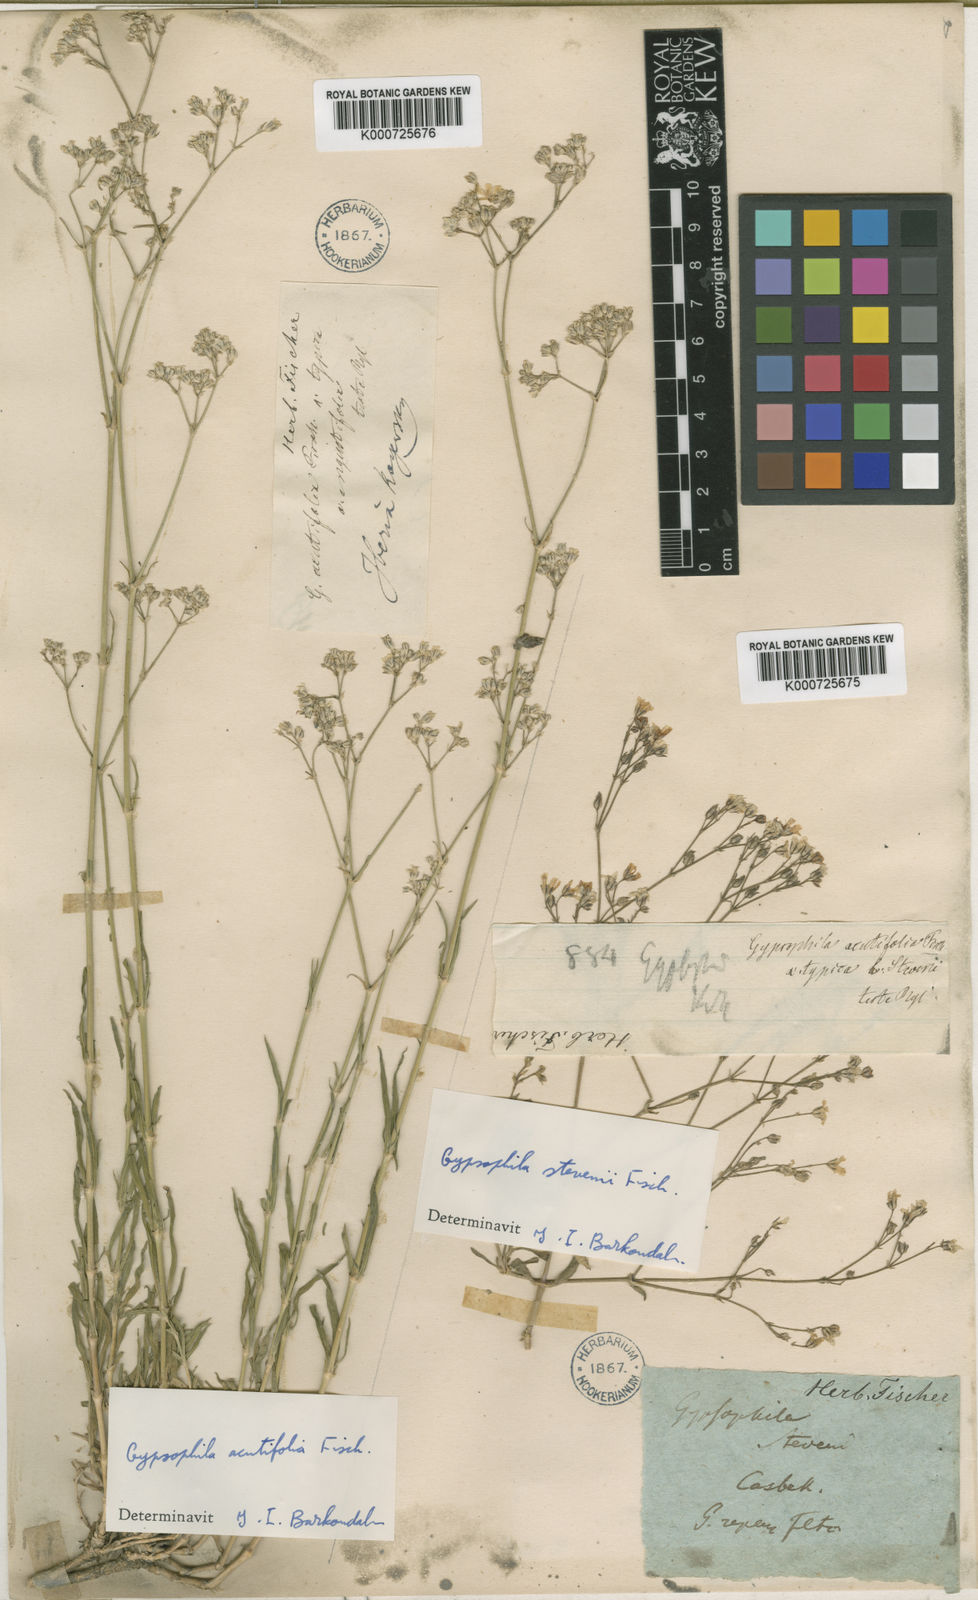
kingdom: Plantae
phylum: Tracheophyta
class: Magnoliopsida
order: Caryophyllales
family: Caryophyllaceae
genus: Gypsophila
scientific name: Gypsophila stevenii
